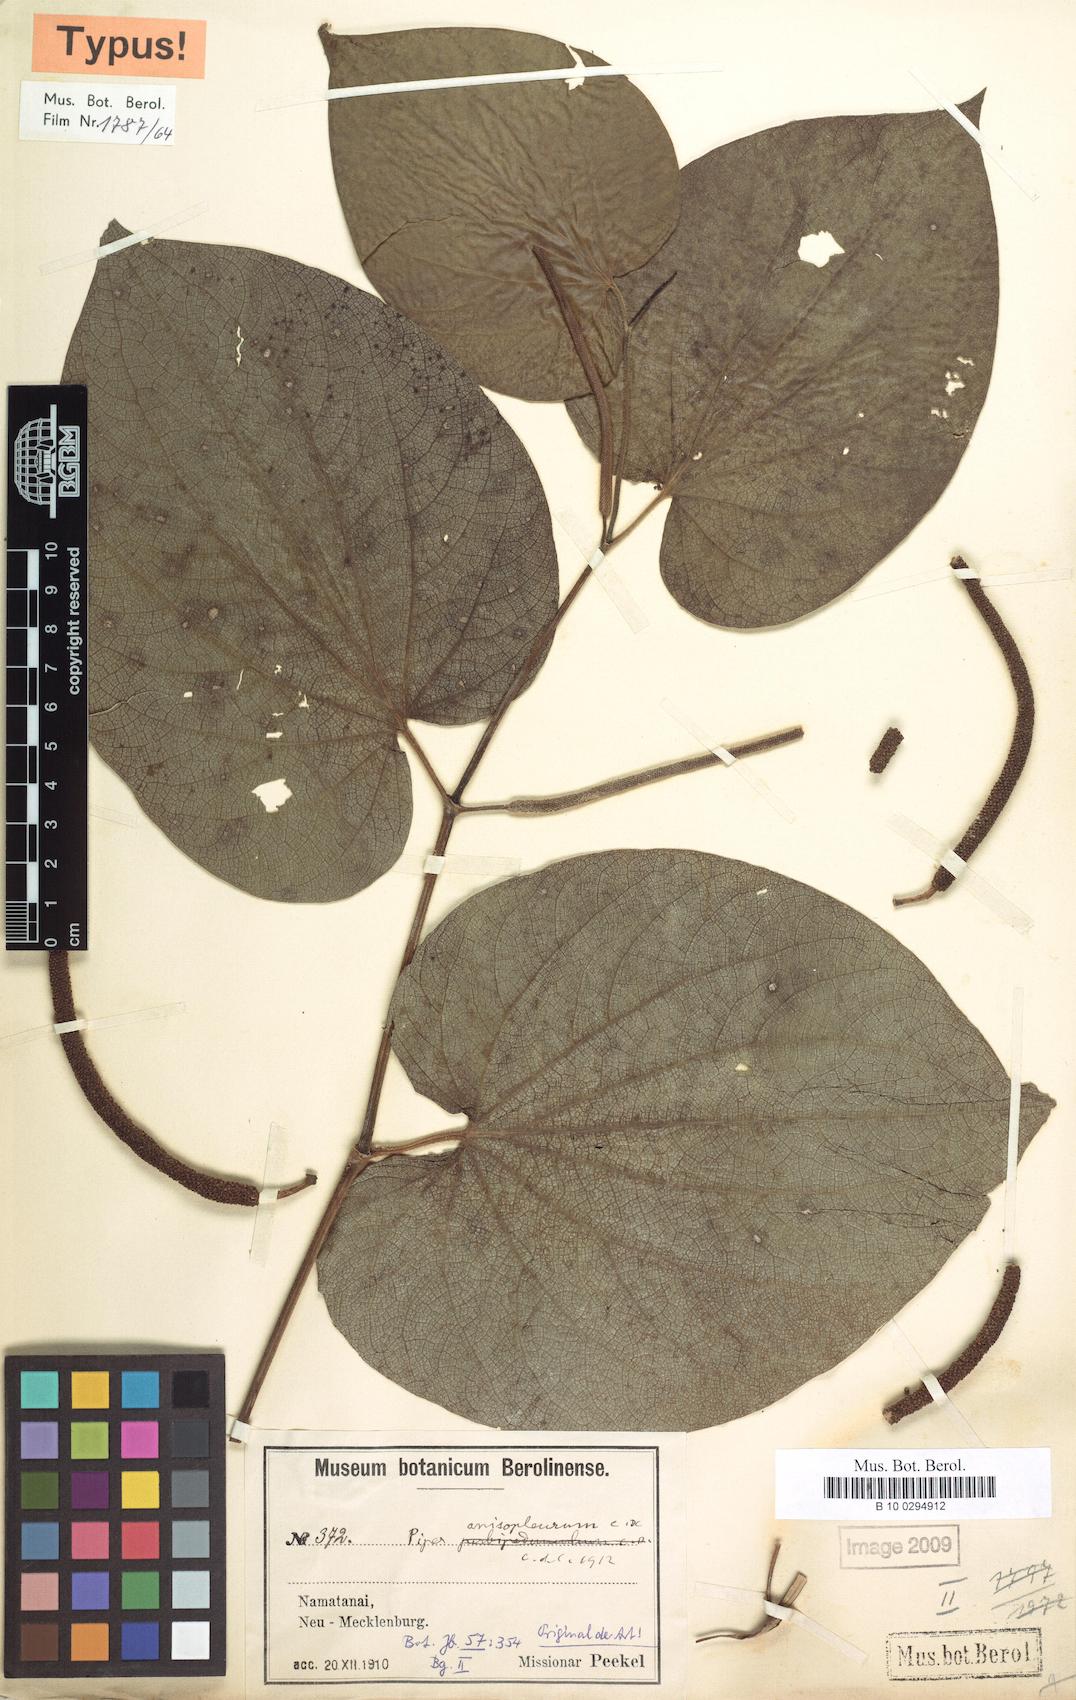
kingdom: Plantae
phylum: Tracheophyta
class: Magnoliopsida
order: Piperales
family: Piperaceae
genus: Piper
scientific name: Piper anisopleurum
